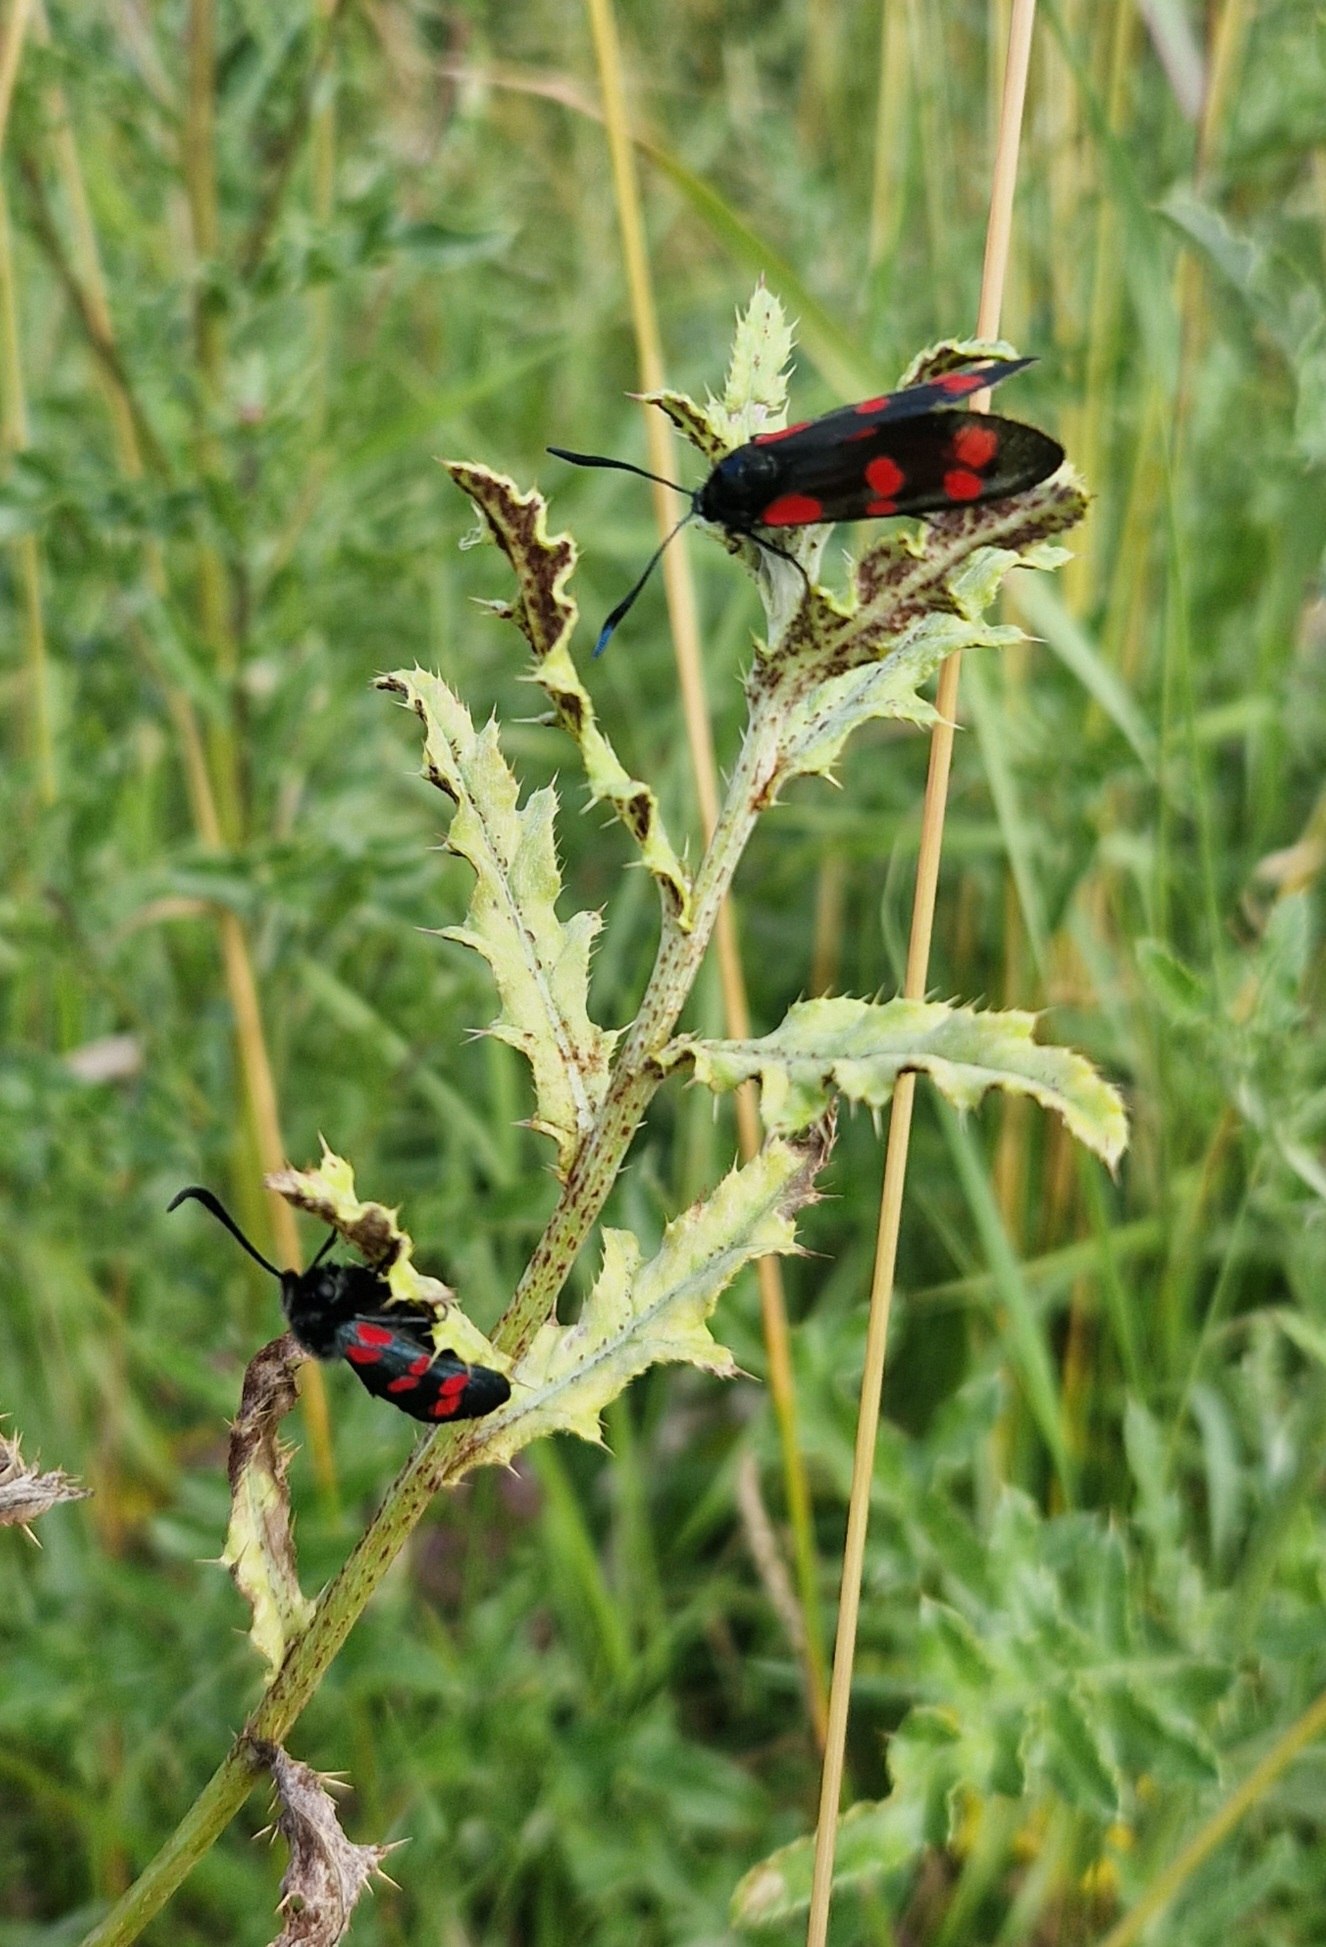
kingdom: Animalia
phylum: Arthropoda
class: Insecta
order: Lepidoptera
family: Zygaenidae
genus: Zygaena
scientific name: Zygaena filipendulae
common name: Seksplettet køllesværmer
